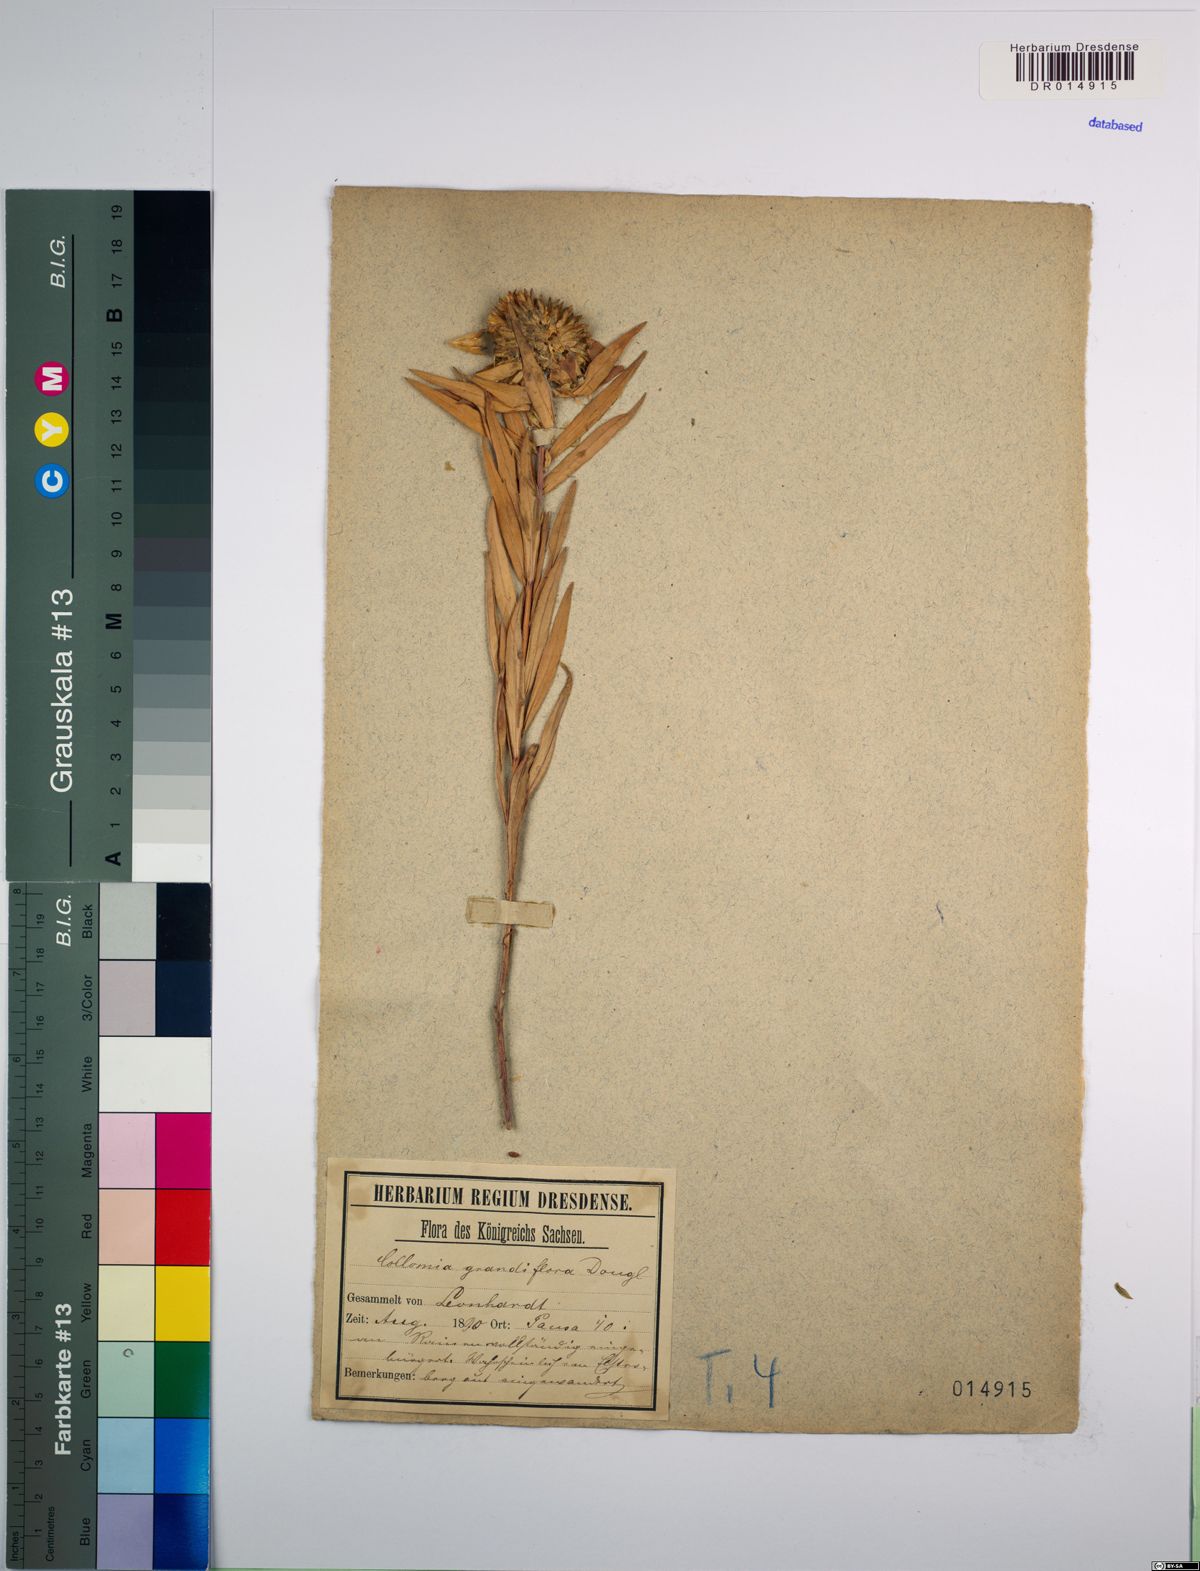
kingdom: Plantae
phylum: Tracheophyta
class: Magnoliopsida
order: Ericales
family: Polemoniaceae
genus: Collomia
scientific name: Collomia grandiflora
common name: California strawflower
